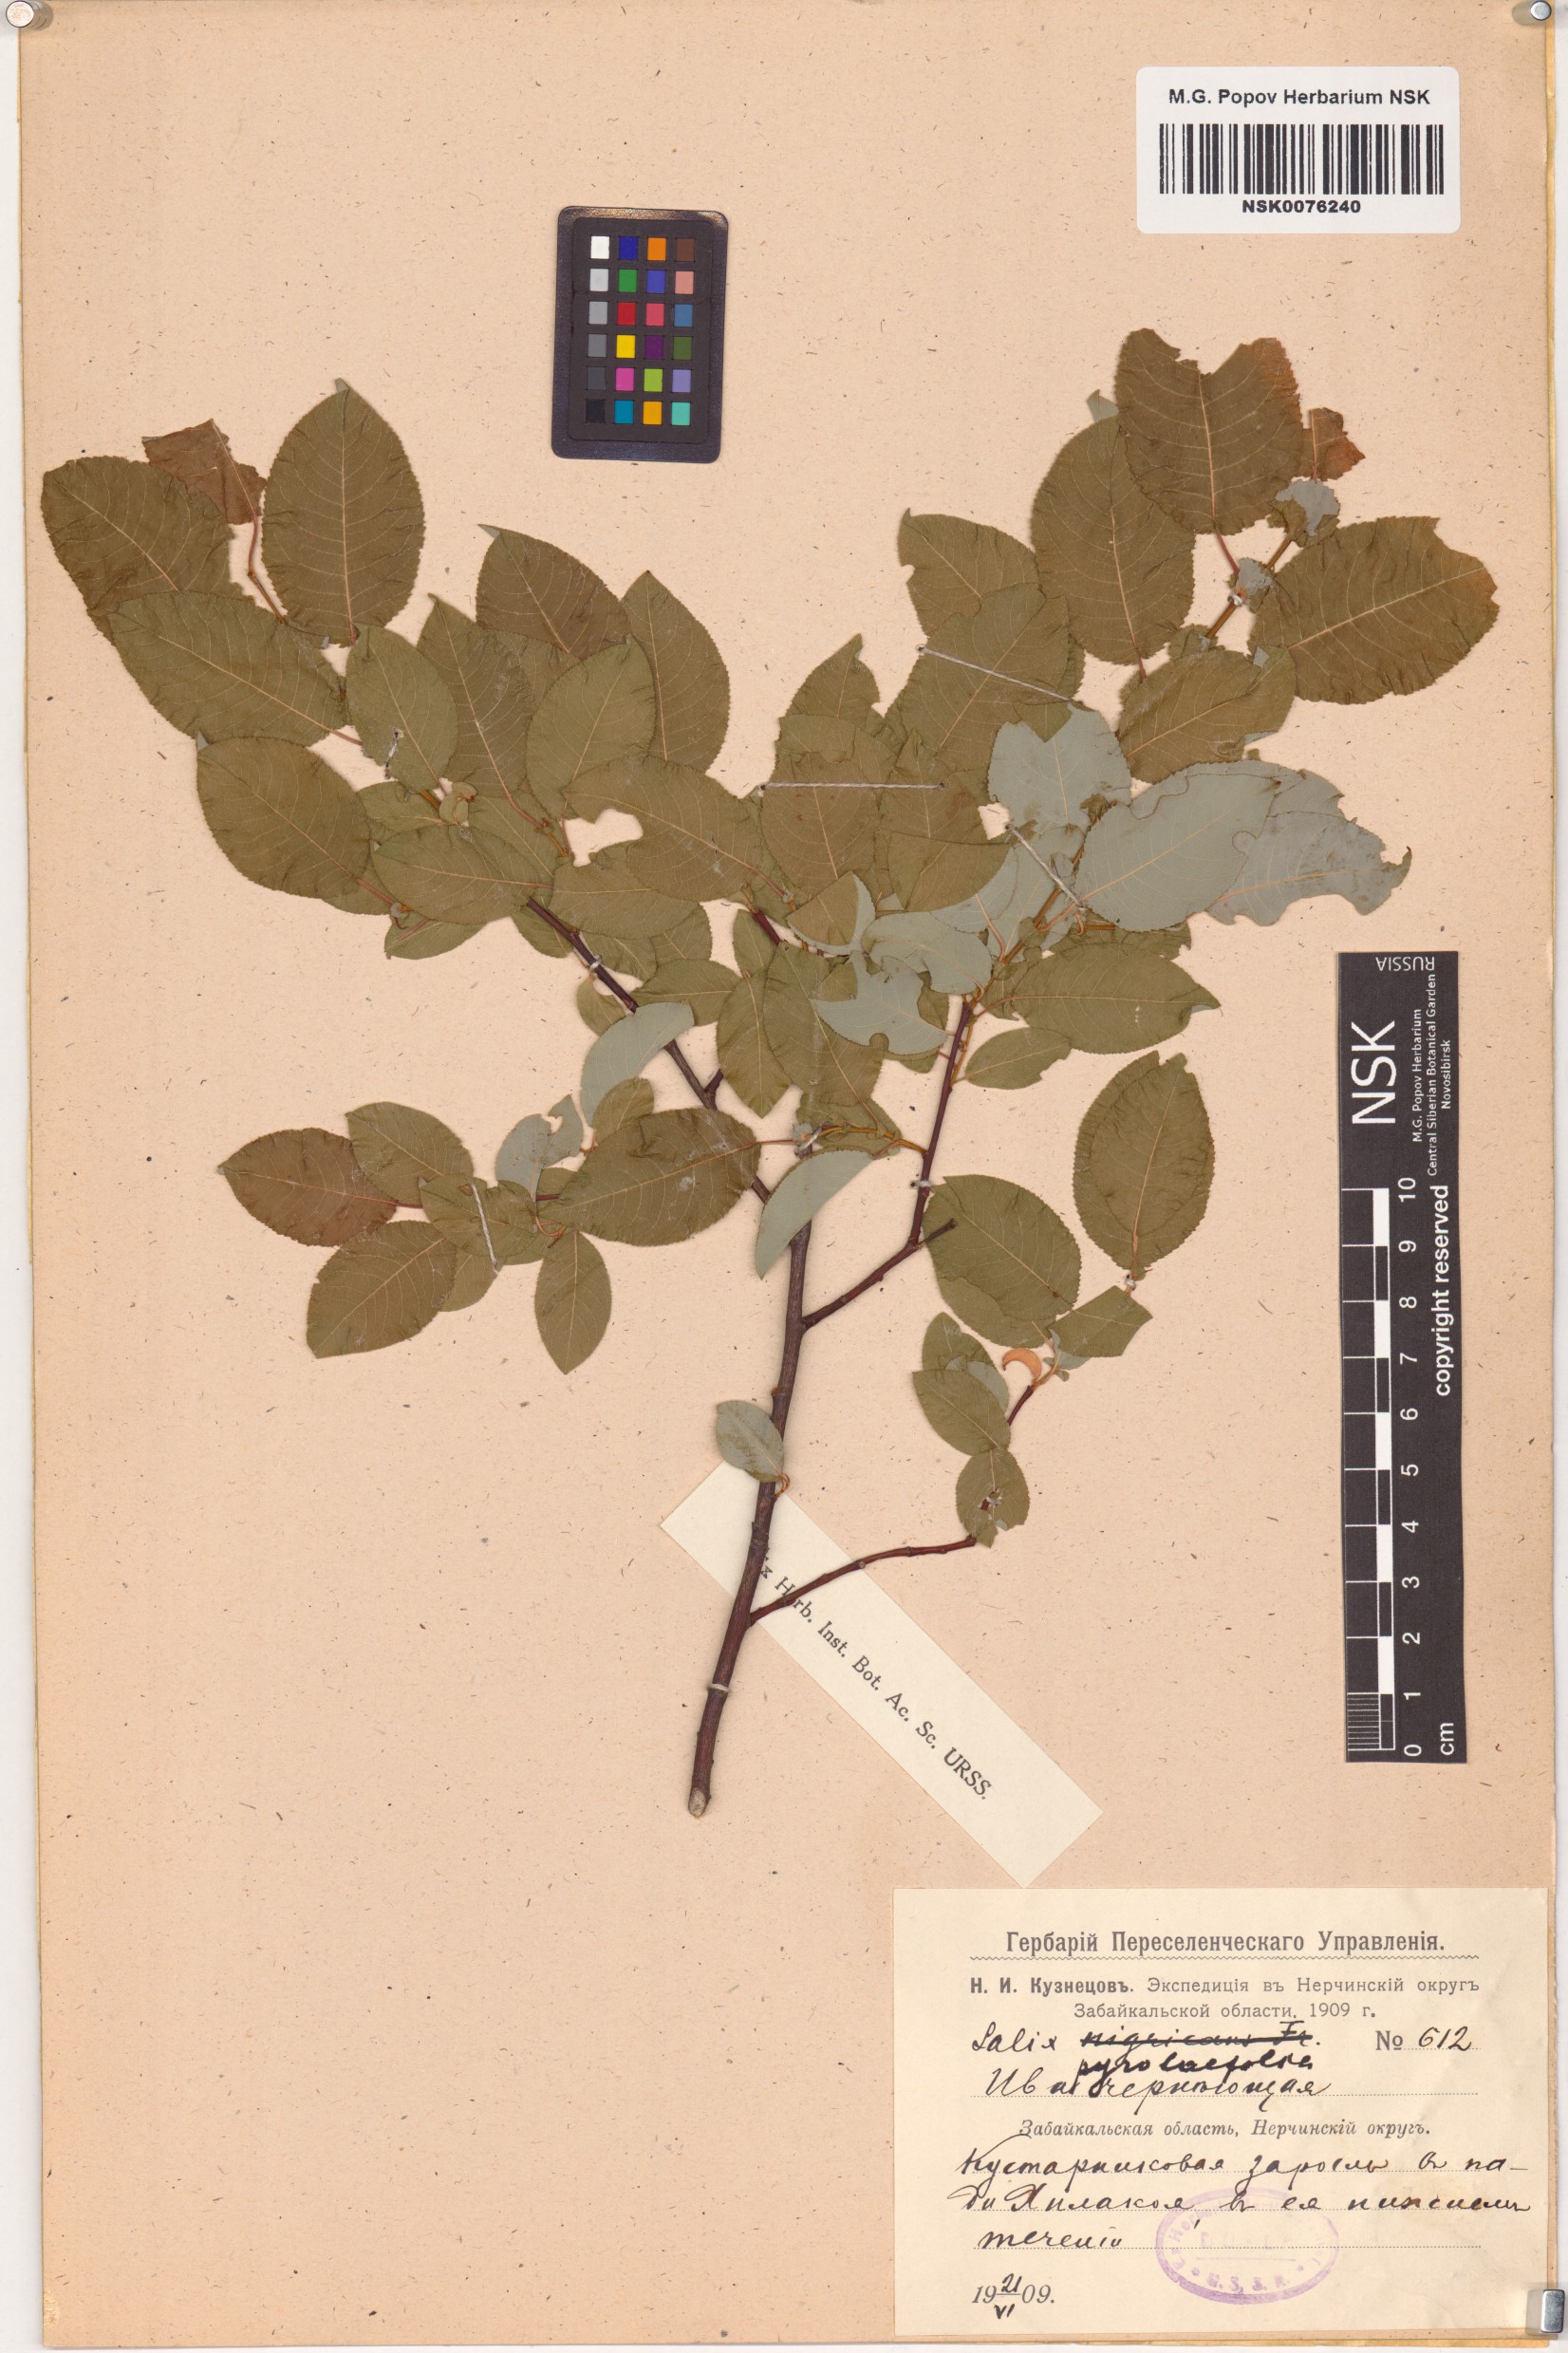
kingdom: Plantae
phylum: Tracheophyta
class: Magnoliopsida
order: Malpighiales
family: Salicaceae
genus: Salix
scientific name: Salix pyrolifolia
